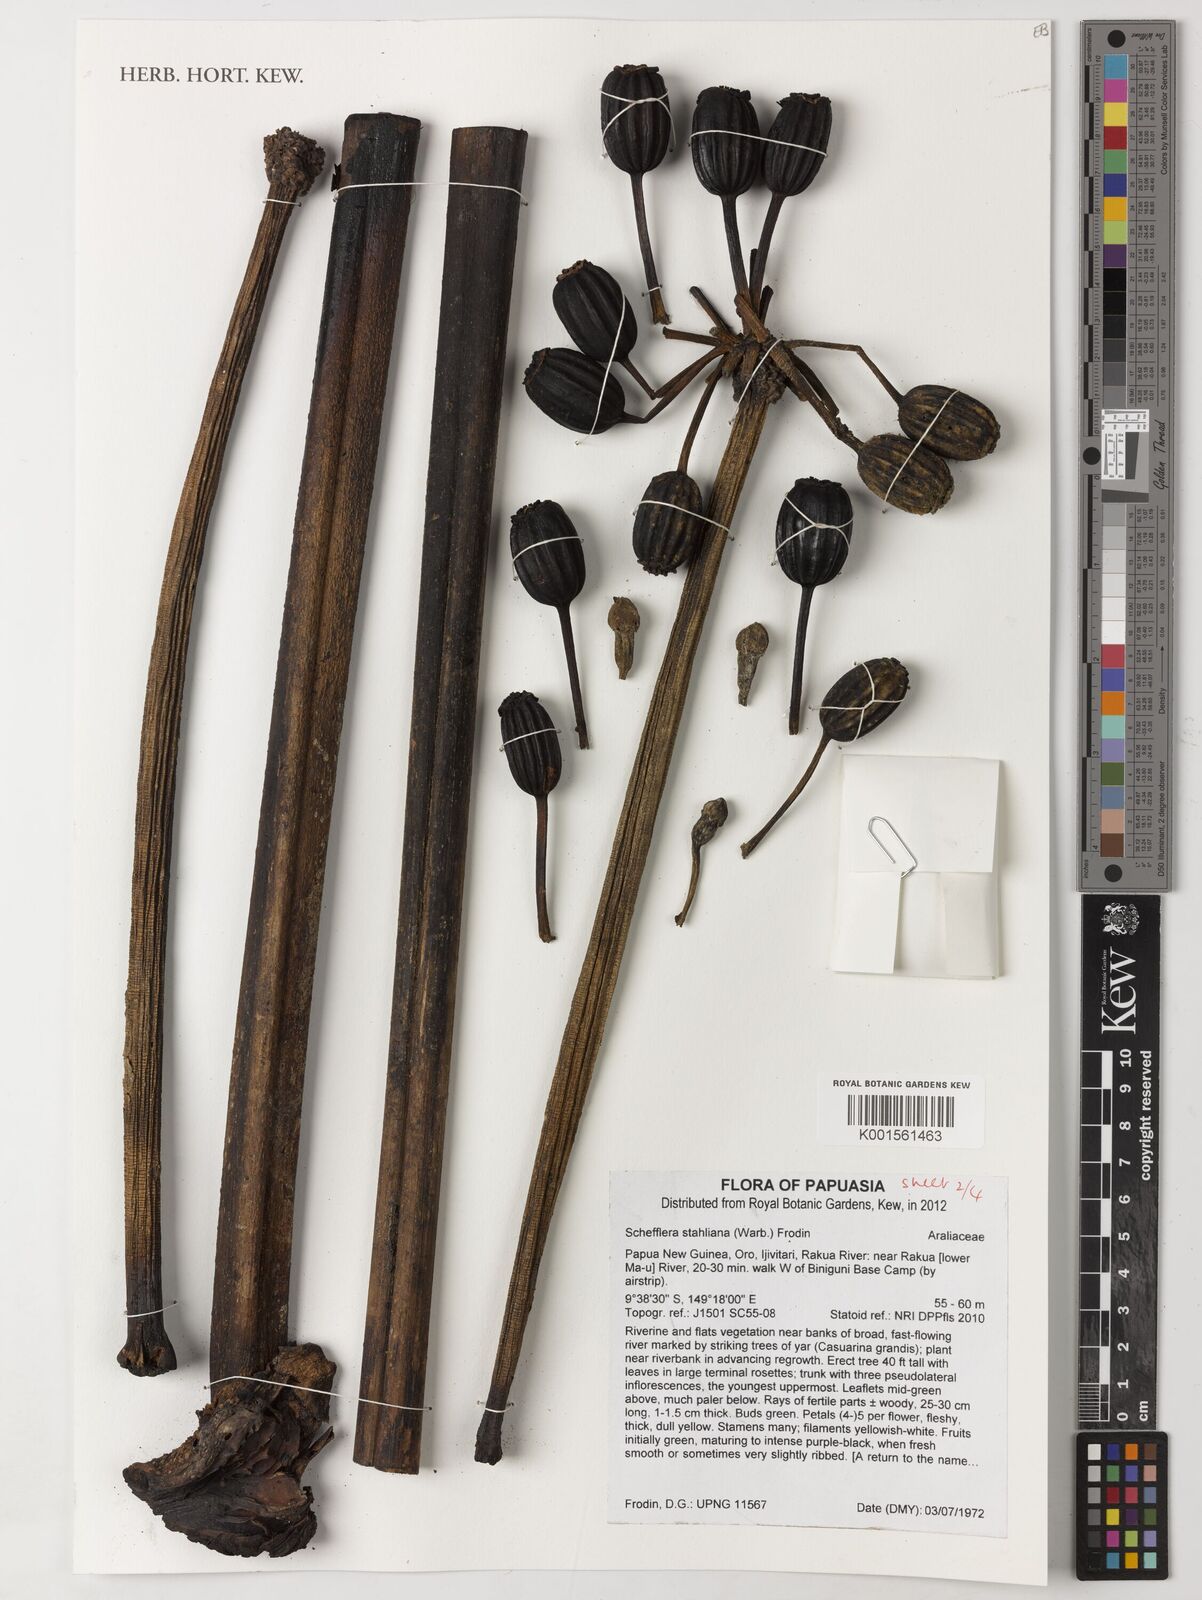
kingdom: Plantae
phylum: Tracheophyta
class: Magnoliopsida
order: Apiales
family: Araliaceae
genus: Plerandra
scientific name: Plerandra stahliana
